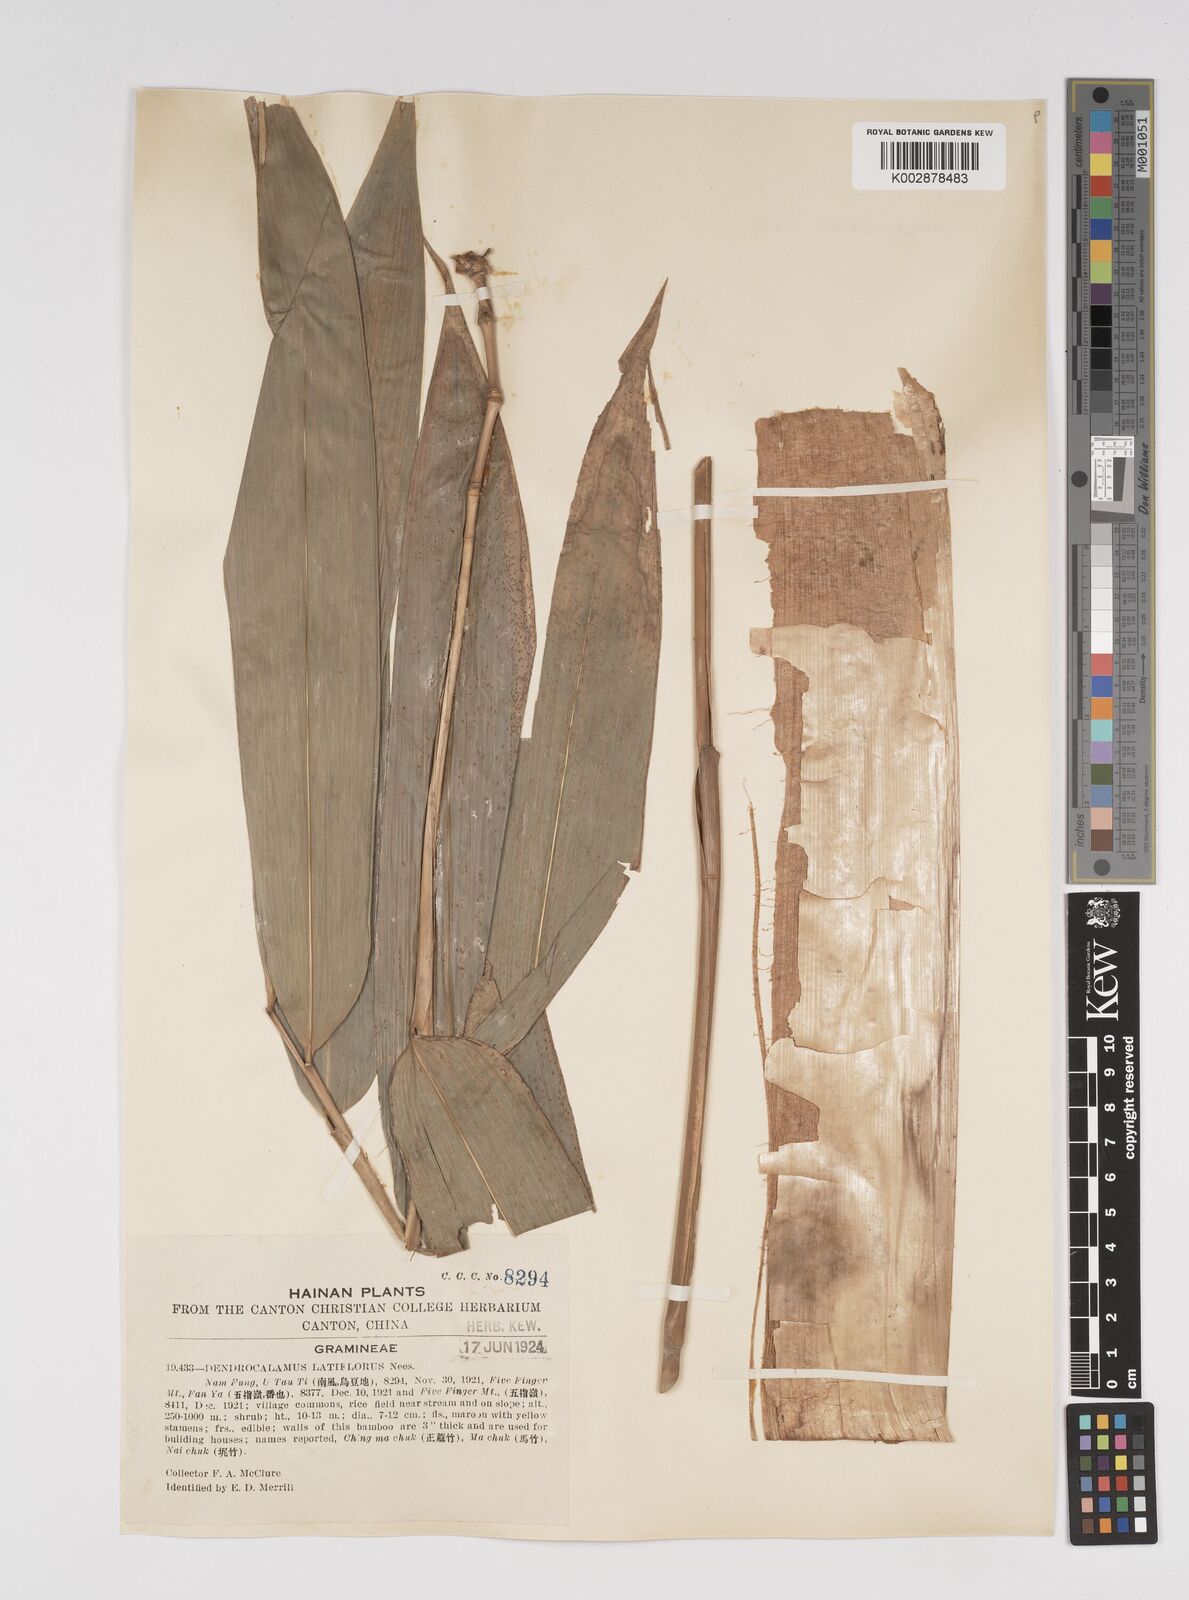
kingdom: Plantae
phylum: Tracheophyta
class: Liliopsida
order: Poales
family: Poaceae
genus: Dendrocalamus
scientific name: Dendrocalamus
